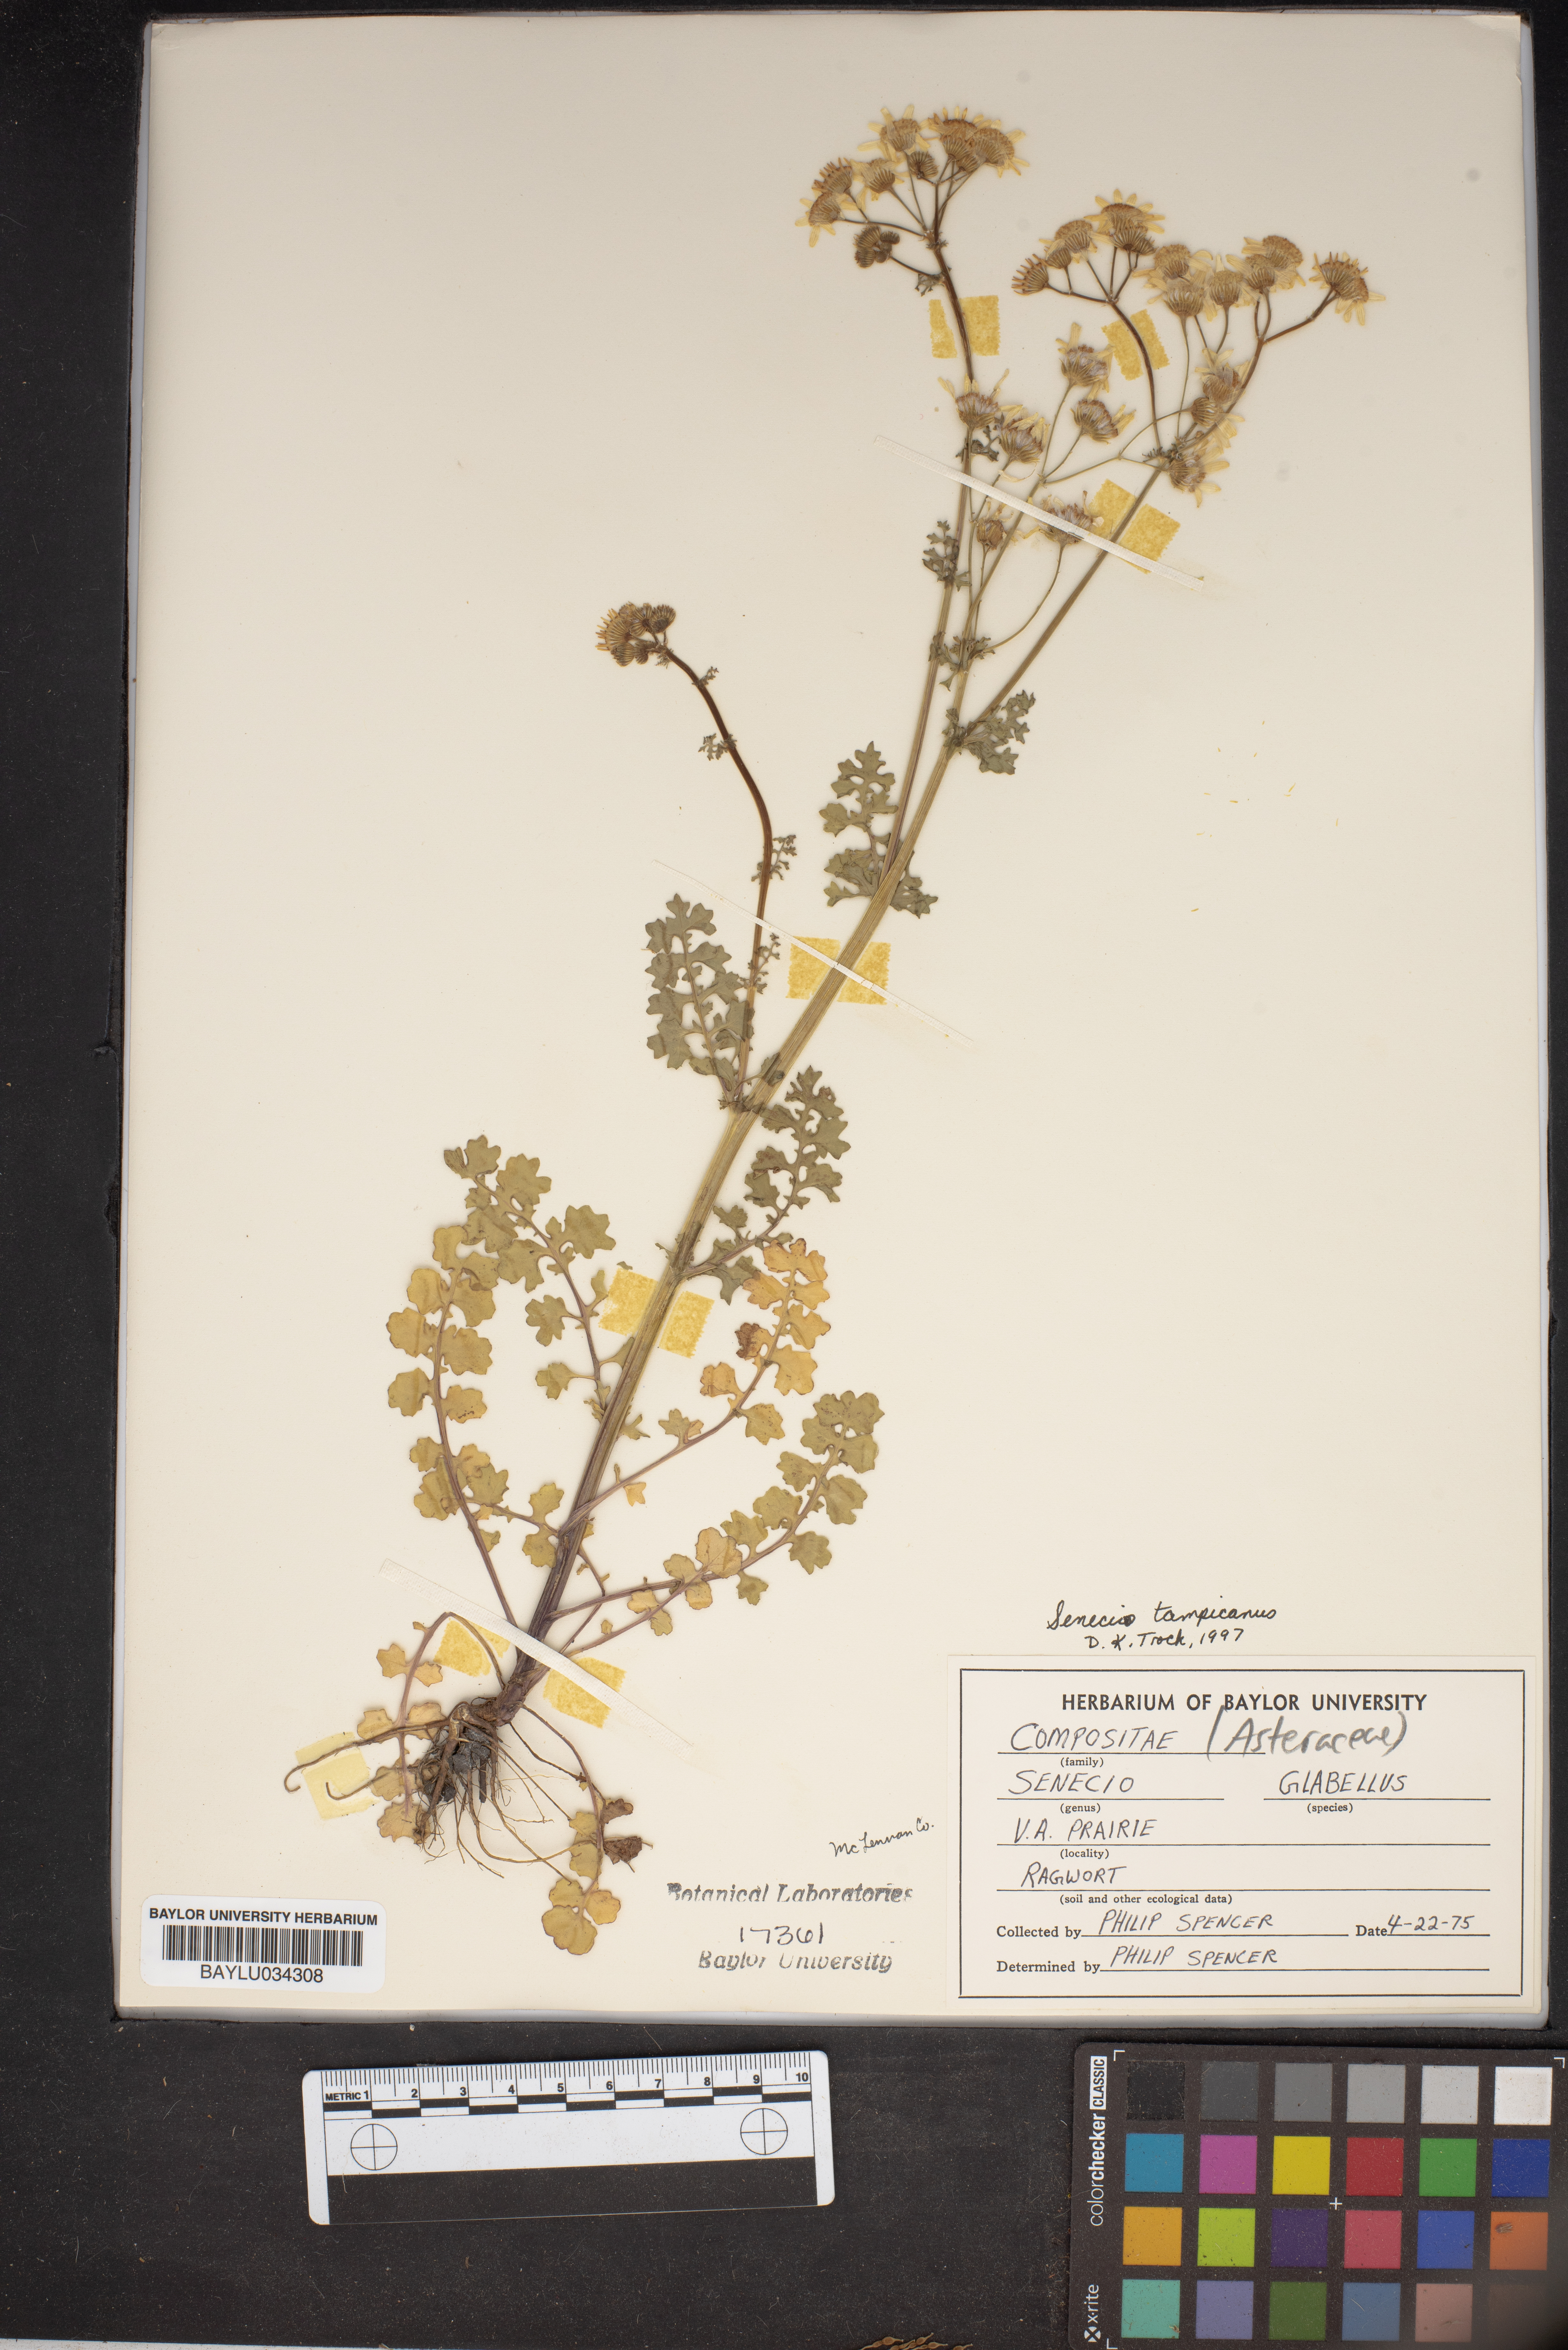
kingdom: Plantae
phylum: Tracheophyta
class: Magnoliopsida
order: Asterales
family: Asteraceae
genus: Packera
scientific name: Packera tampicana
